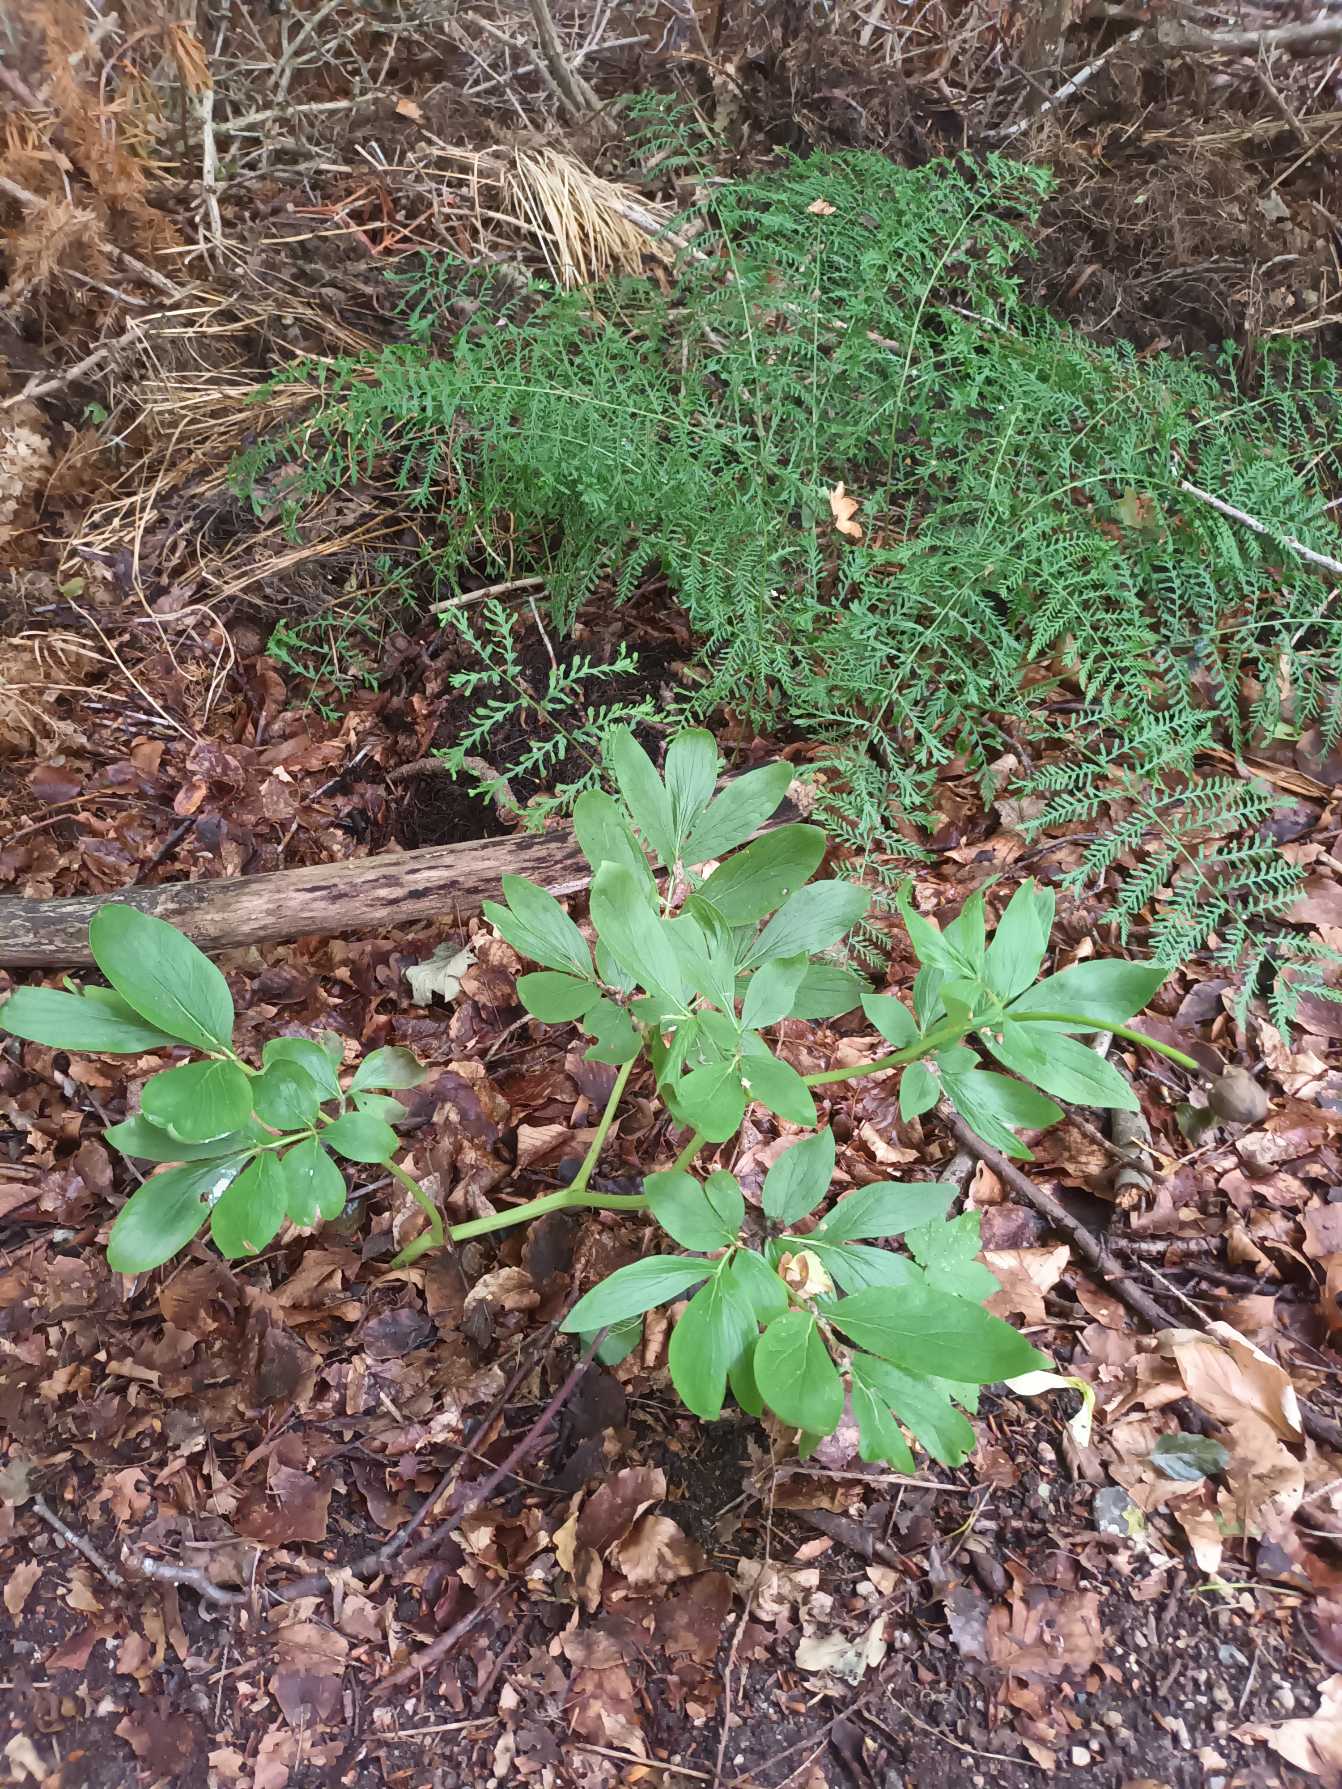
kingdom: Plantae
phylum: Tracheophyta
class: Magnoliopsida
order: Saxifragales
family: Paeoniaceae
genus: Paeonia
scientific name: Paeonia officinalis
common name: Bonderose
